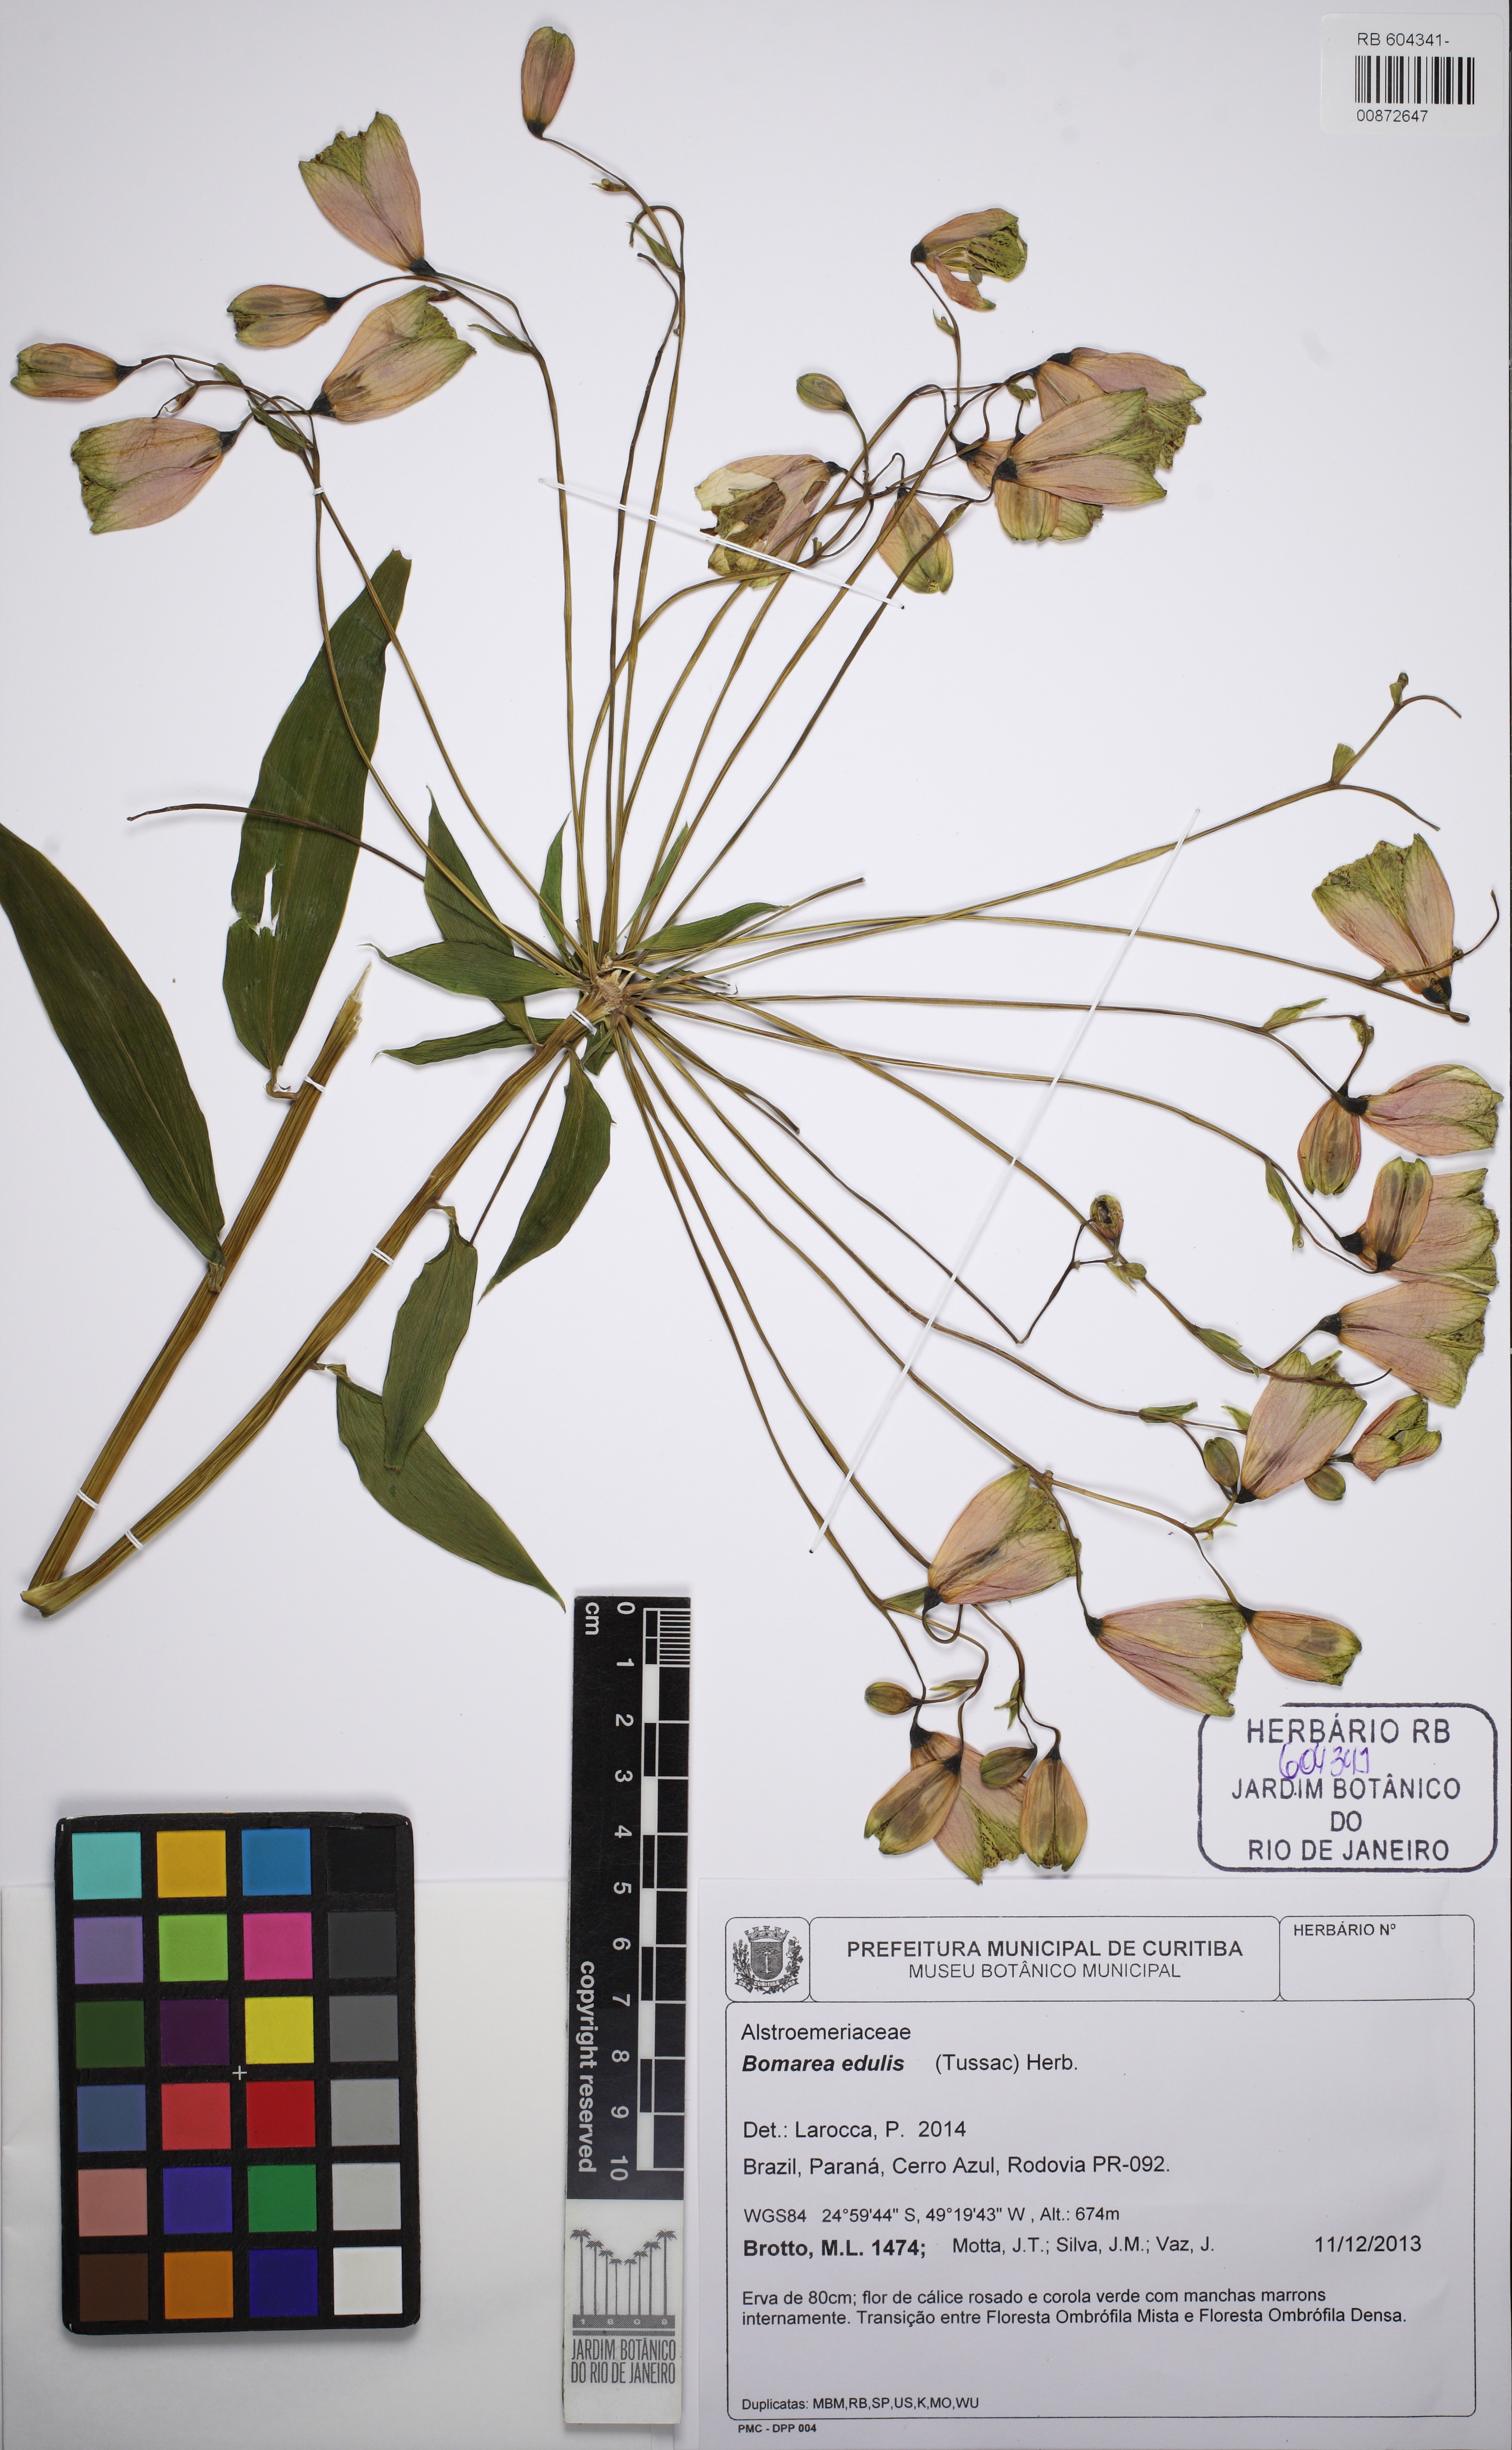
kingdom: Plantae
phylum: Tracheophyta
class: Liliopsida
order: Liliales
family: Alstroemeriaceae
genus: Bomarea
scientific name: Bomarea edulis
